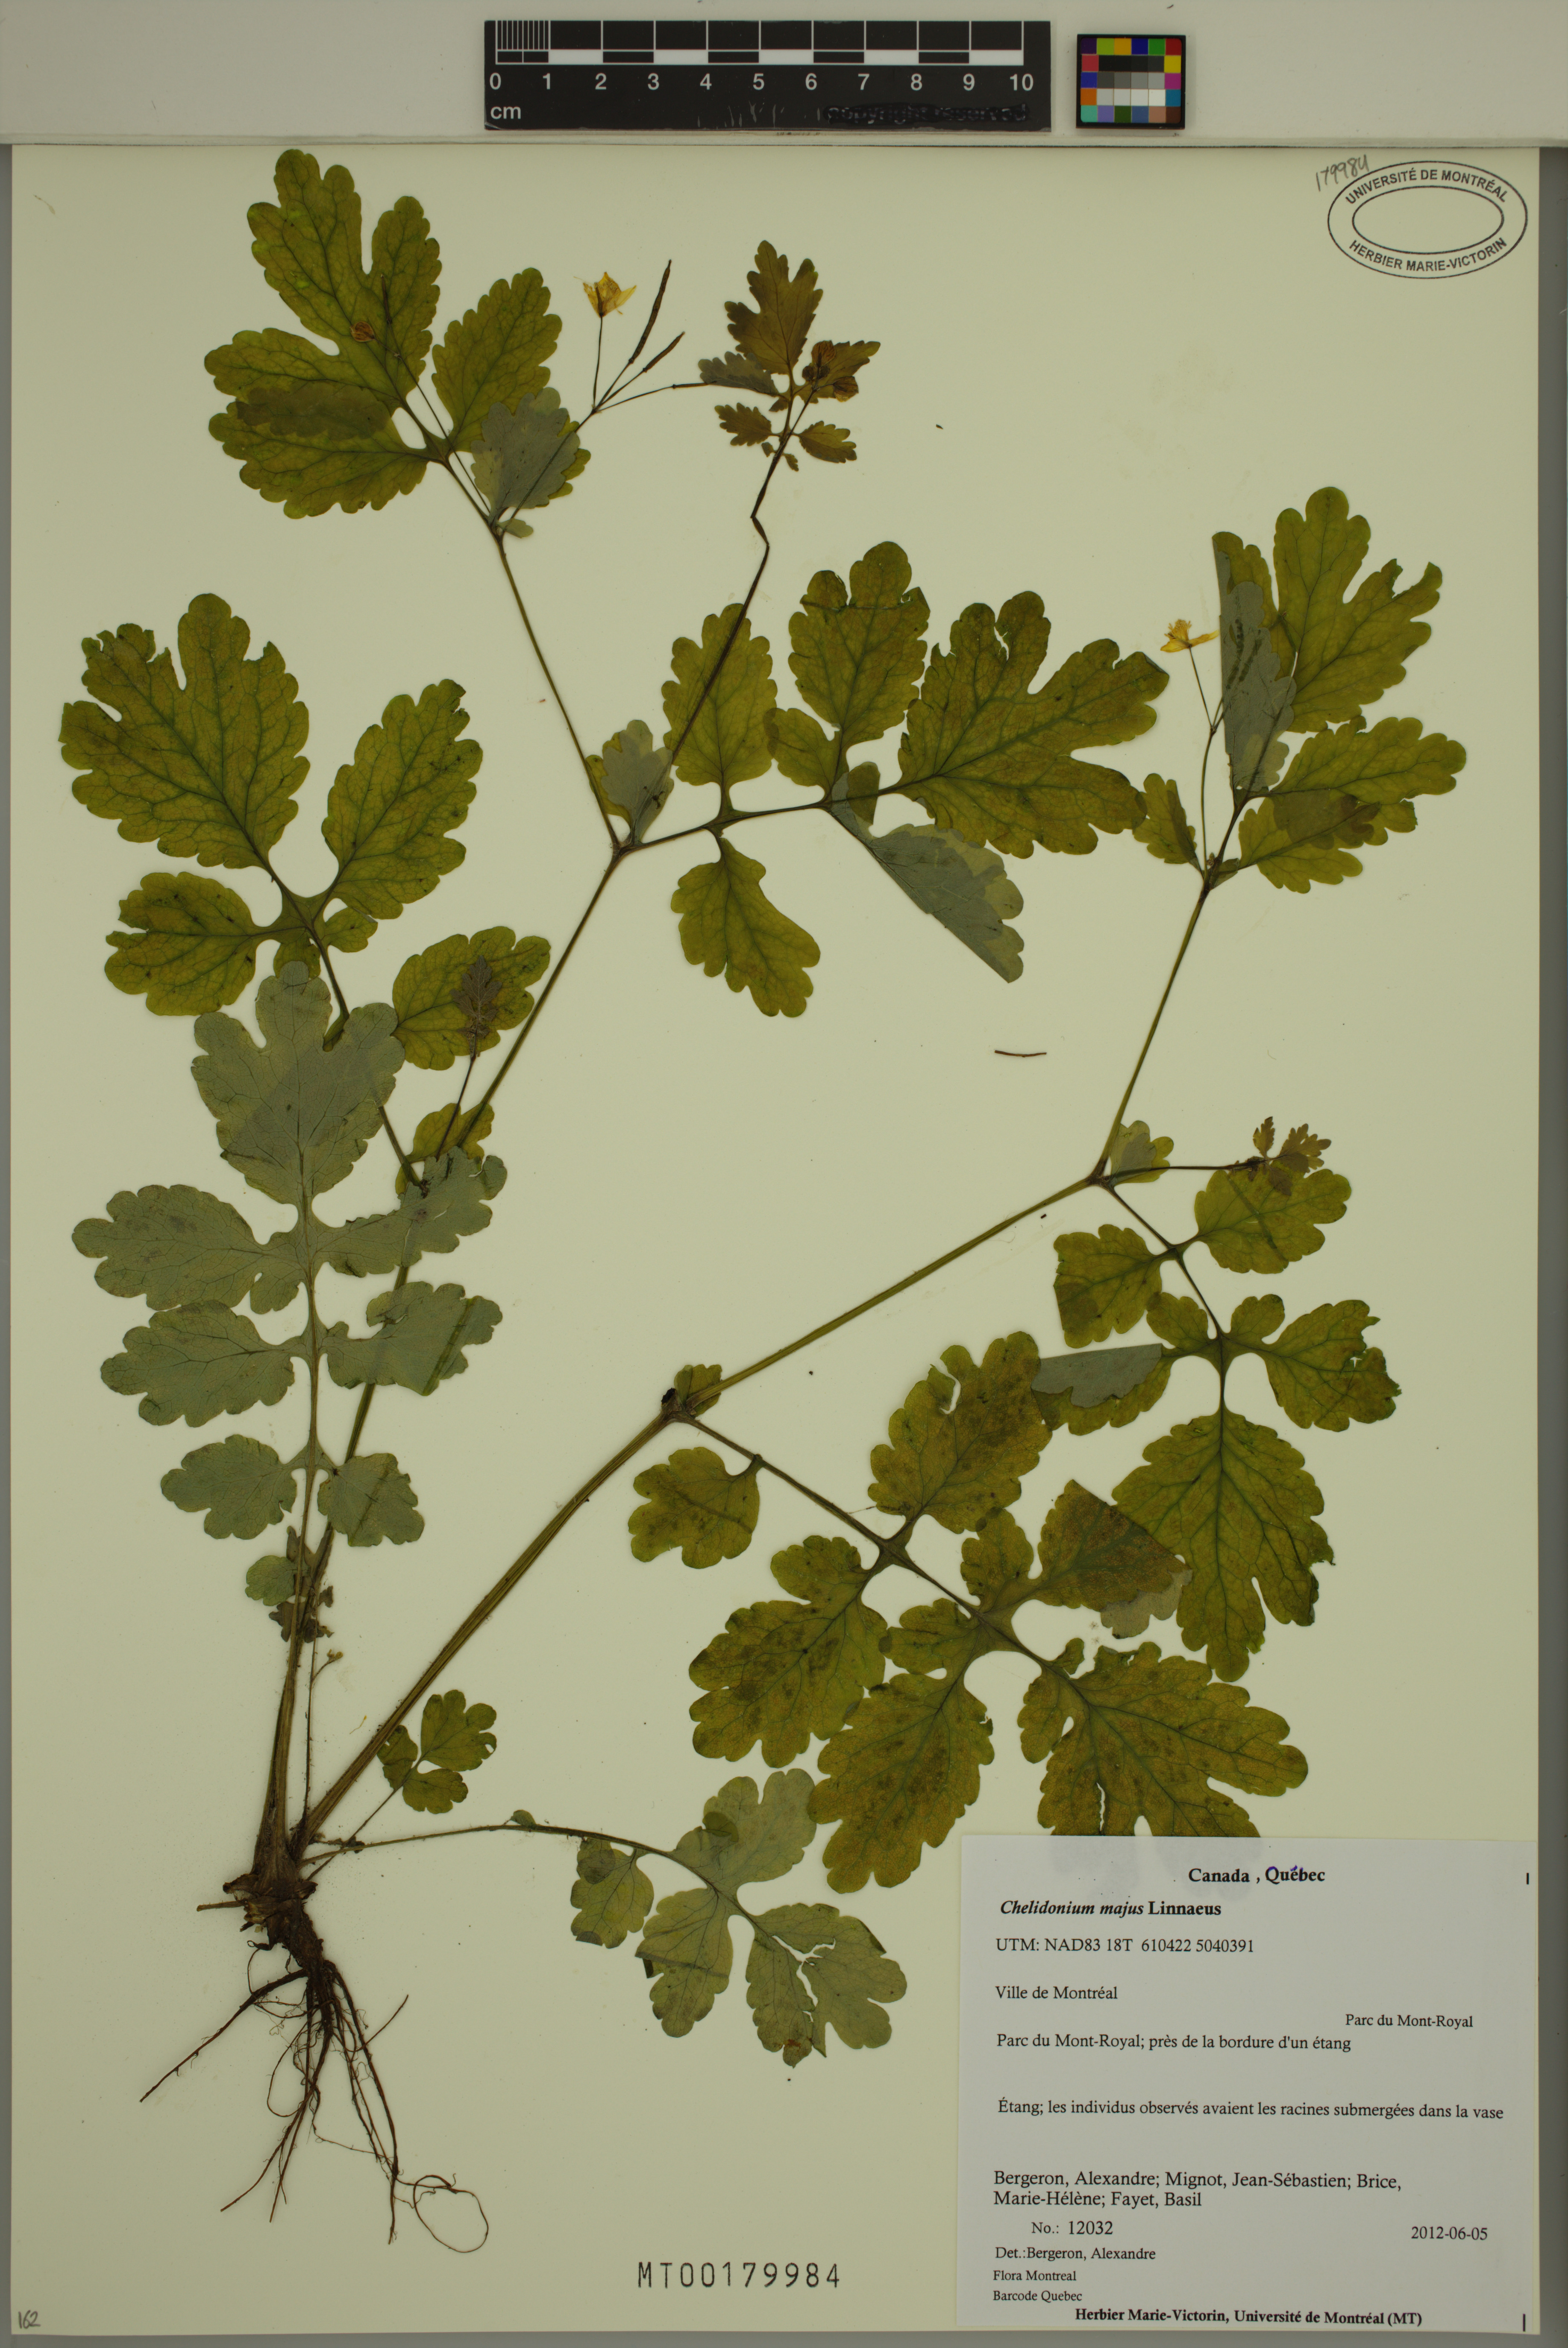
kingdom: Plantae
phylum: Tracheophyta
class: Magnoliopsida
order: Ranunculales
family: Papaveraceae
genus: Chelidonium
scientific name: Chelidonium majus
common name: Greater celandine
